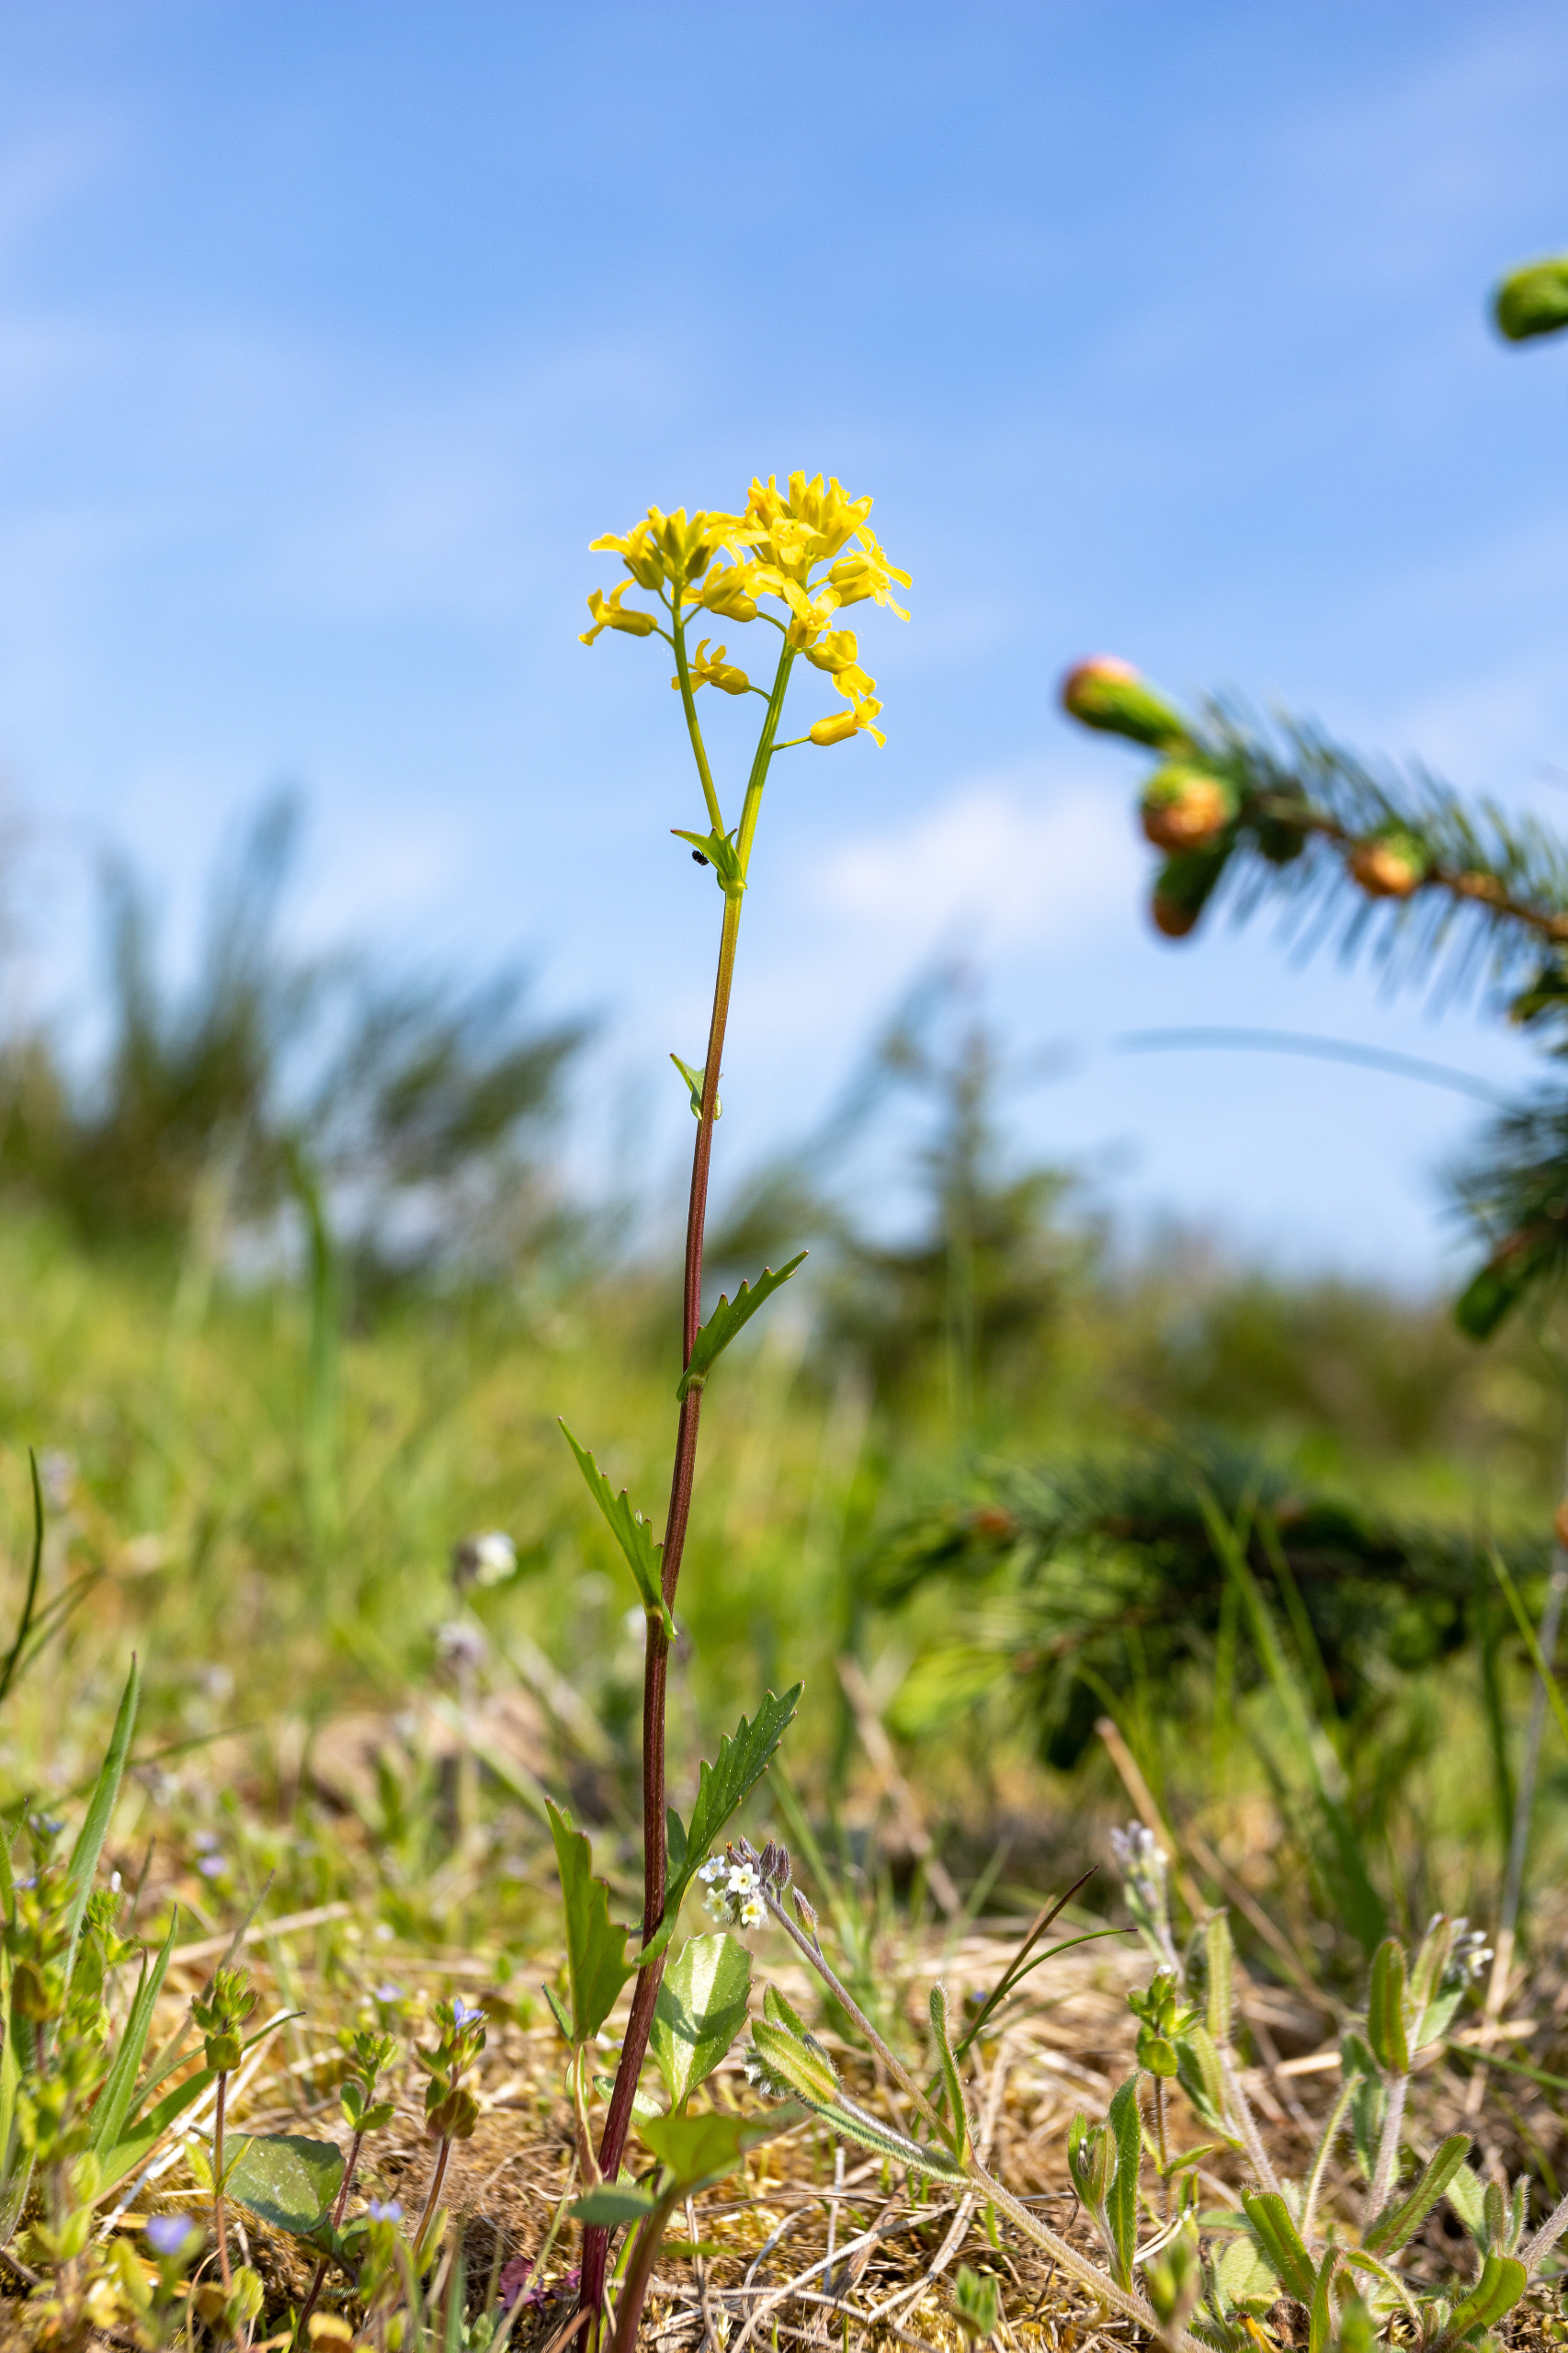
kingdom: Plantae
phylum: Tracheophyta
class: Magnoliopsida
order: Brassicales
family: Brassicaceae
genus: Barbarea
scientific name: Barbarea vulgaris
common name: Almindelig vinterkarse
